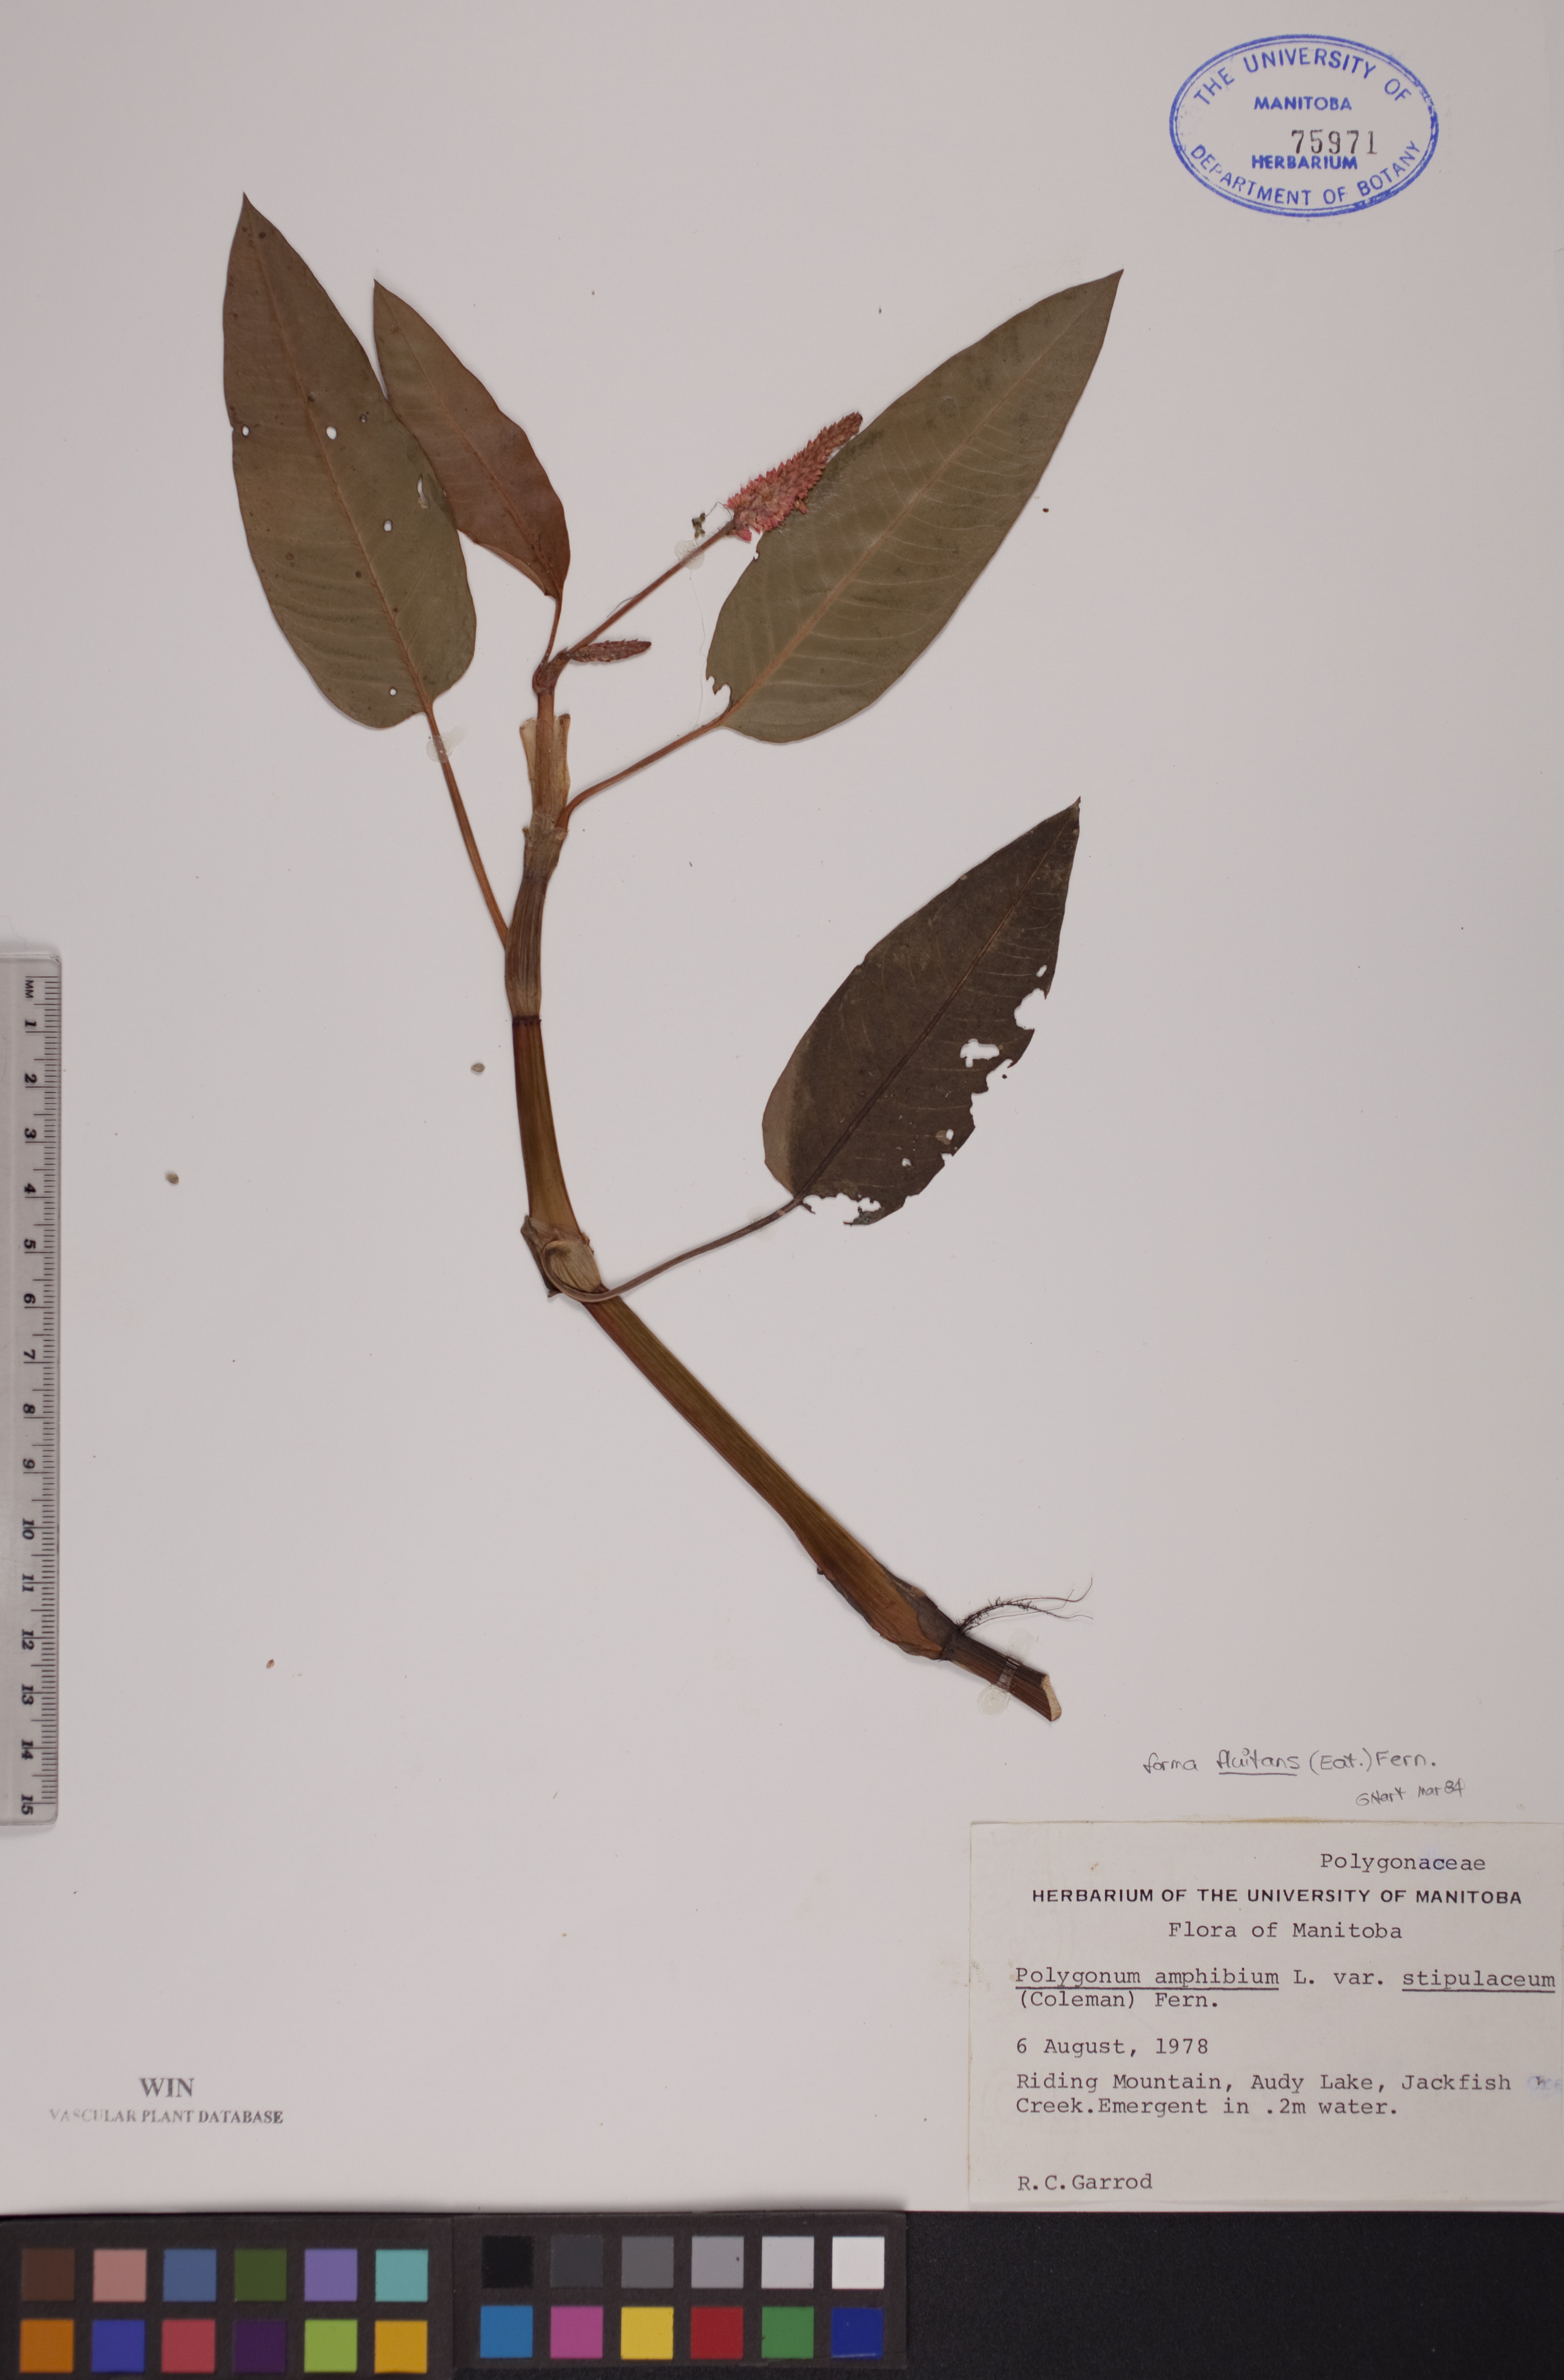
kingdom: Plantae
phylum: Tracheophyta
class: Magnoliopsida
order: Caryophyllales
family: Polygonaceae
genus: Persicaria
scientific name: Persicaria amphibia
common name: Amphibious bistort
